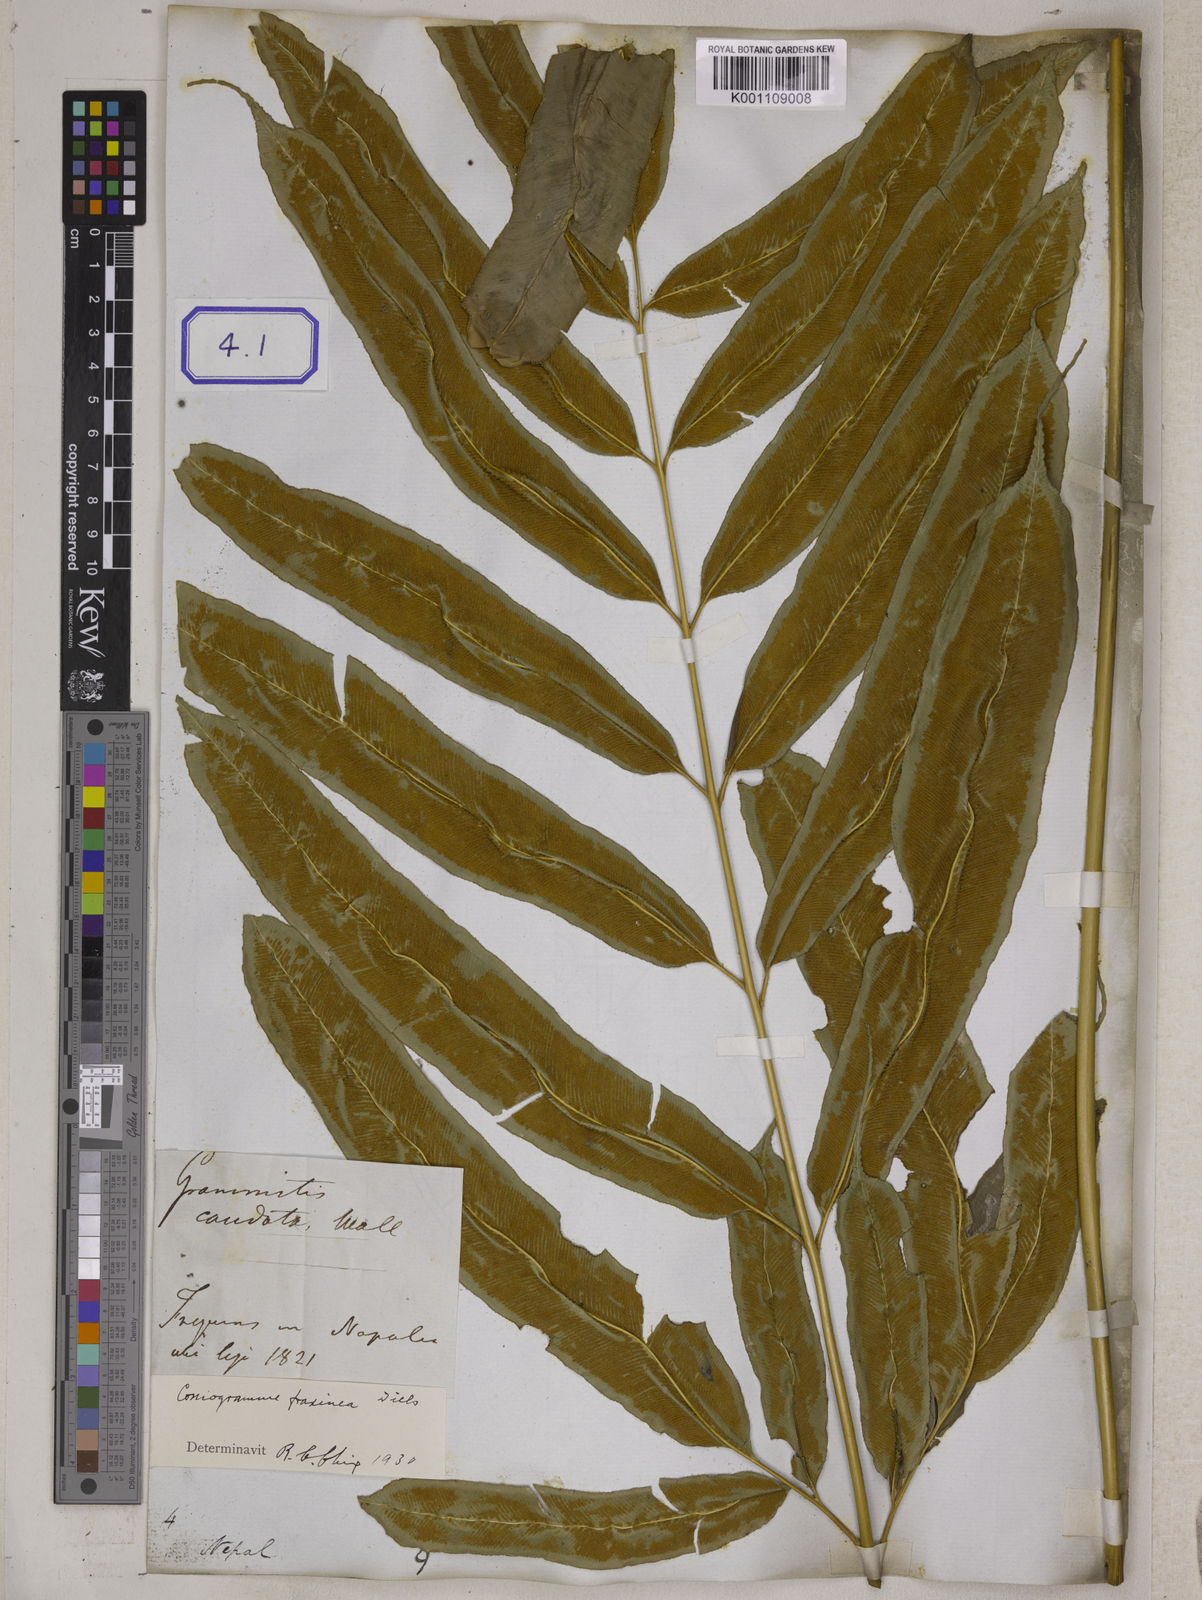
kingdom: Plantae
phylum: Tracheophyta
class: Polypodiopsida
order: Polypodiales
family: Pteridaceae
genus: Coniogramme
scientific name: Coniogramme serrulata
